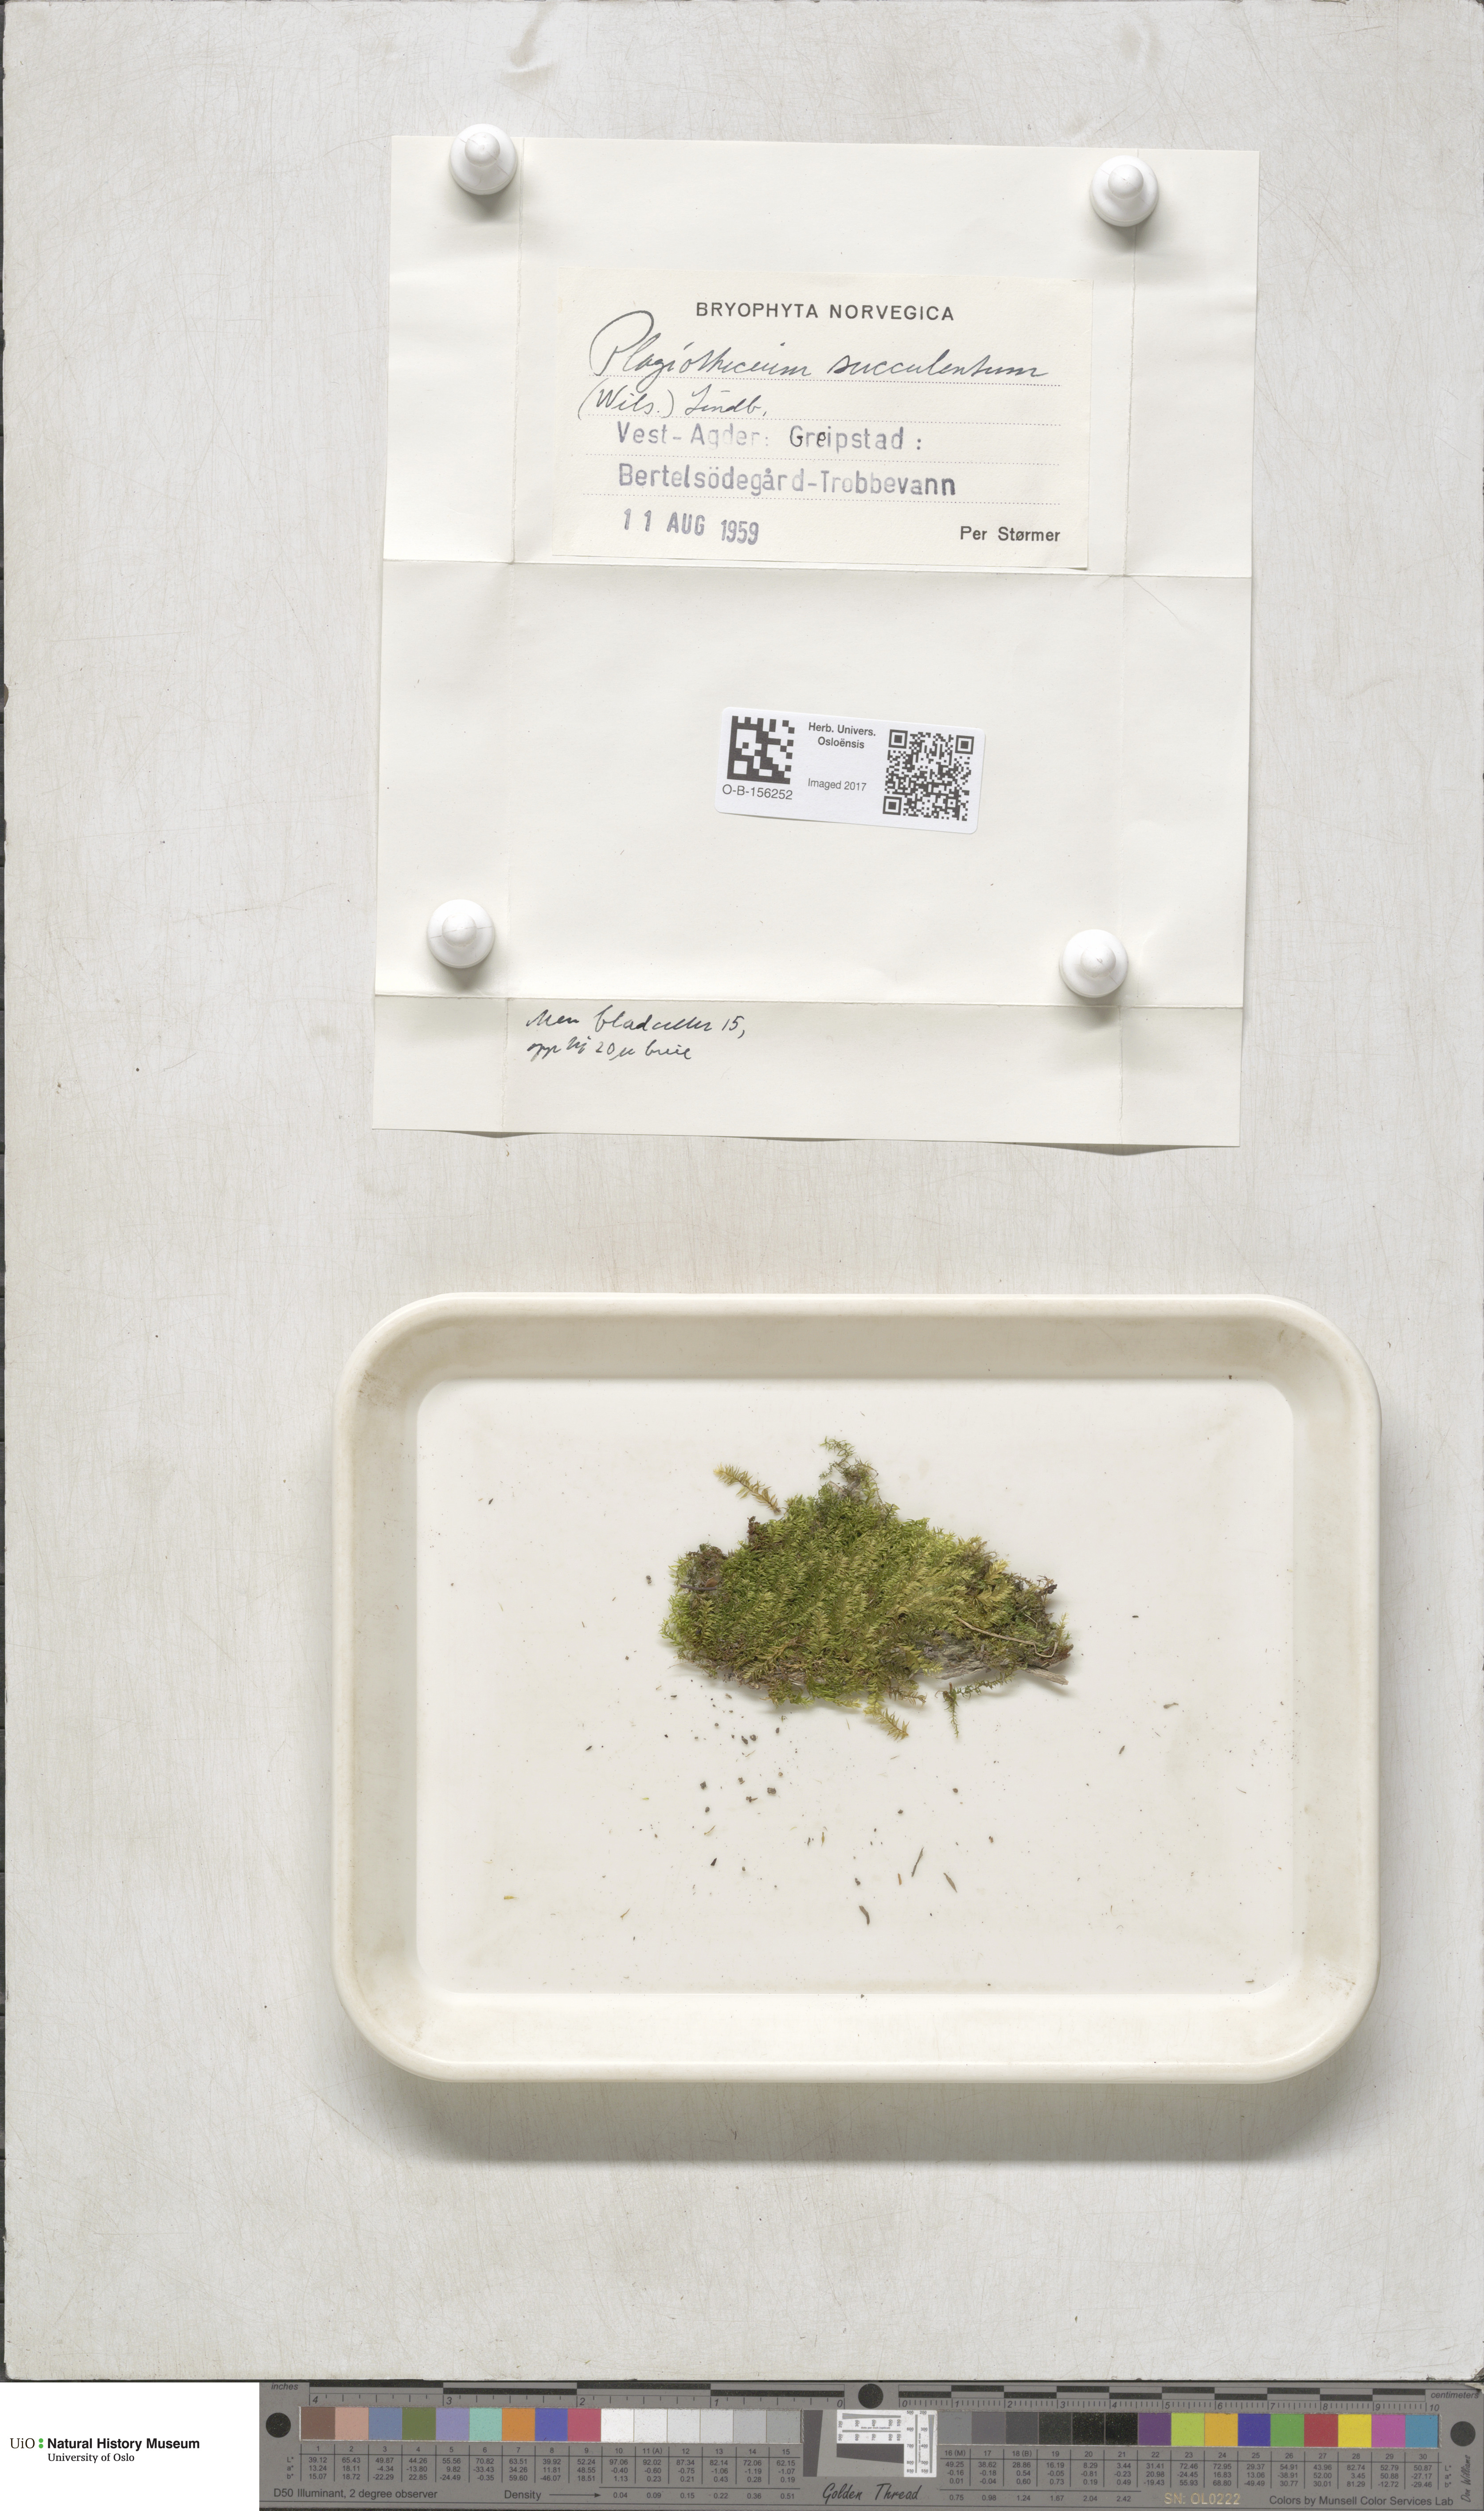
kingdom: Plantae
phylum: Bryophyta
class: Bryopsida
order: Hypnales
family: Plagiotheciaceae
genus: Plagiothecium
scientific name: Plagiothecium nemorale
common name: Woodsy silk-moss
